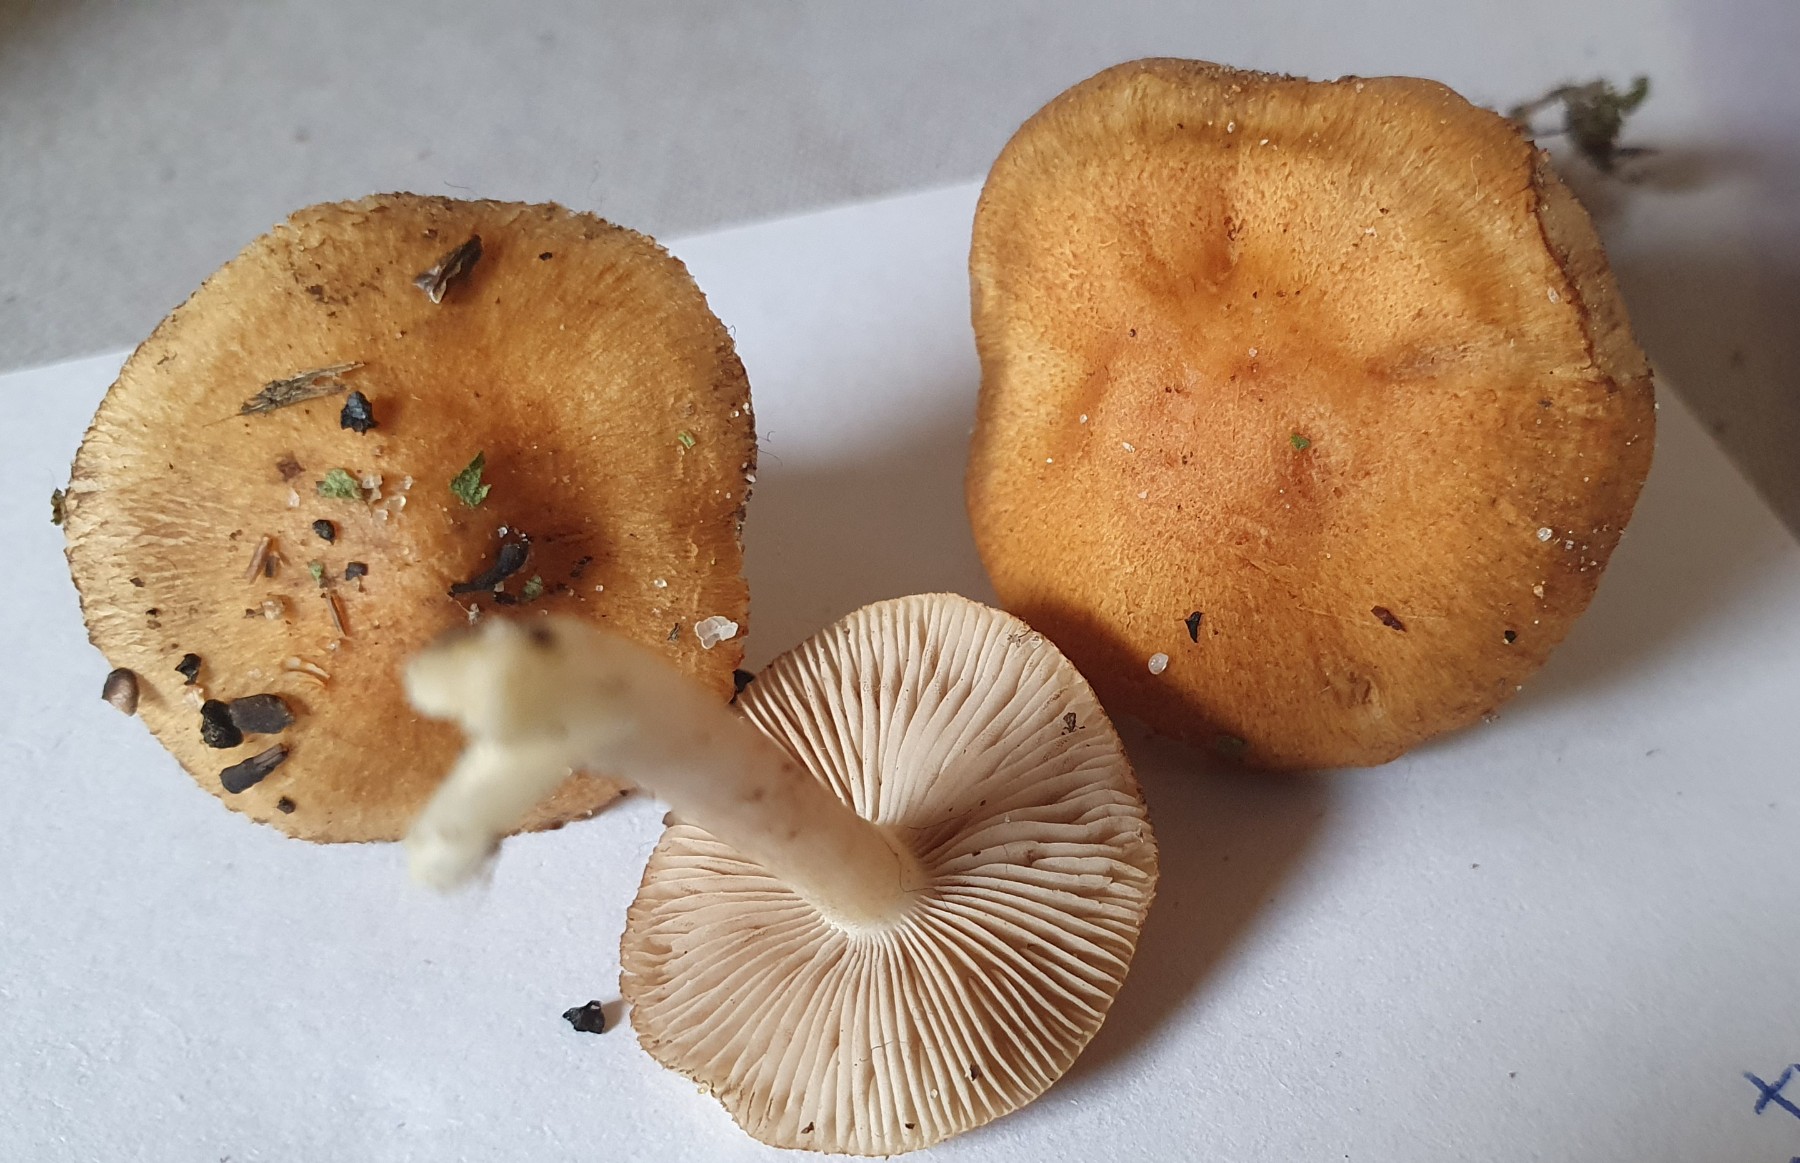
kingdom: Fungi
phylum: Basidiomycota
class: Agaricomycetes
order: Agaricales
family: Inocybaceae
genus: Inocybe
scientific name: Inocybe
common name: trævlhat
